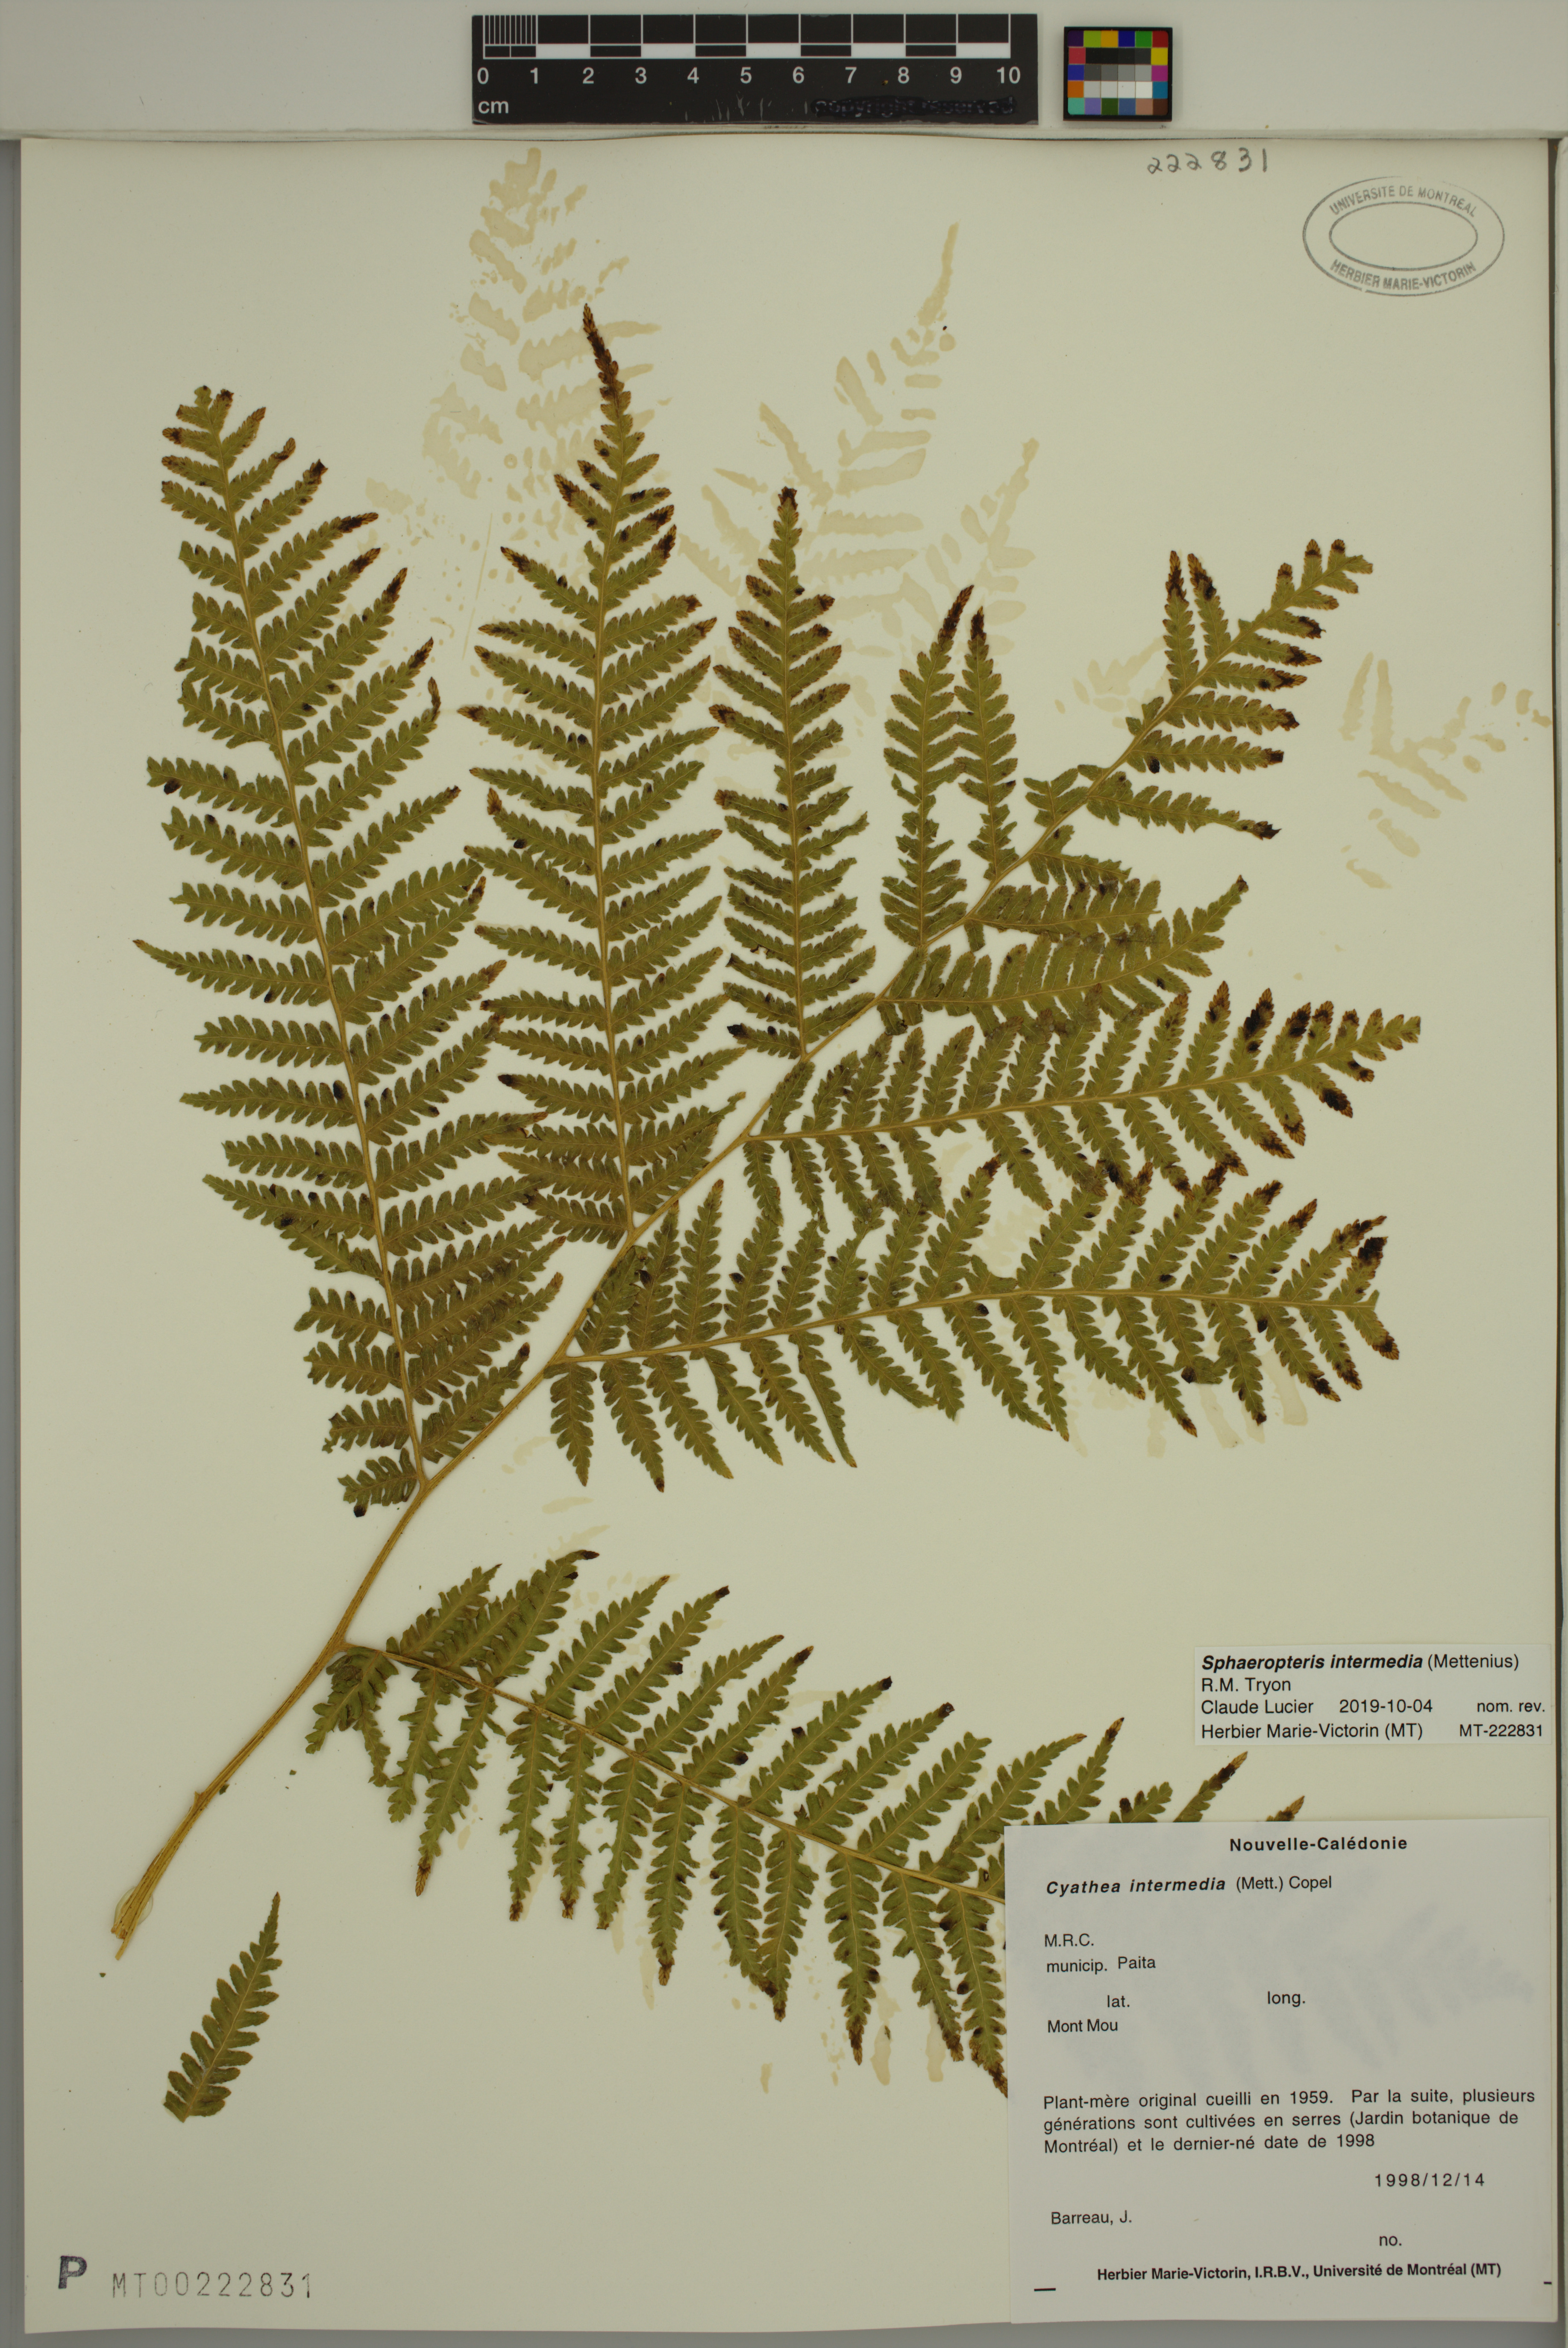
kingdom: Plantae
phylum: Tracheophyta
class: Polypodiopsida
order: Cyatheales
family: Cyatheaceae
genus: Sphaeropteris
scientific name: Sphaeropteris intermedia
